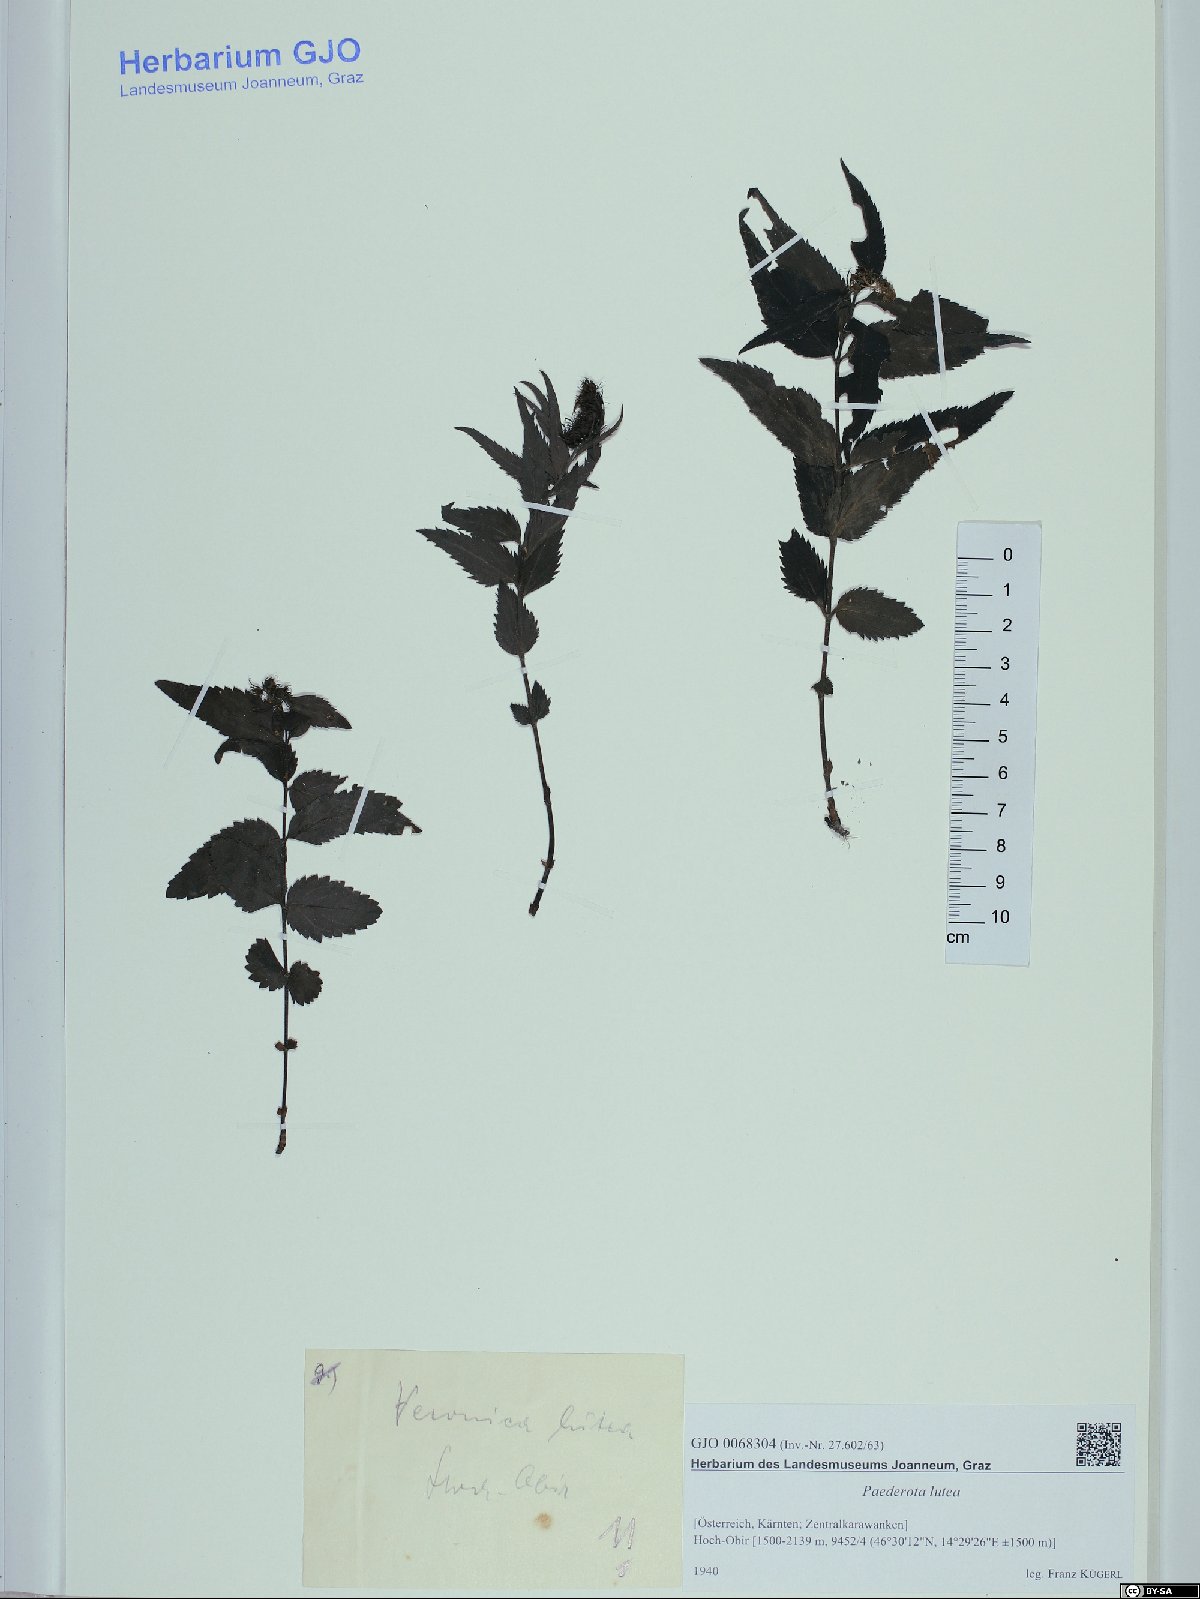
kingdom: Plantae
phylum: Tracheophyta
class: Magnoliopsida
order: Lamiales
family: Plantaginaceae
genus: Paederota
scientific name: Paederota lutea
